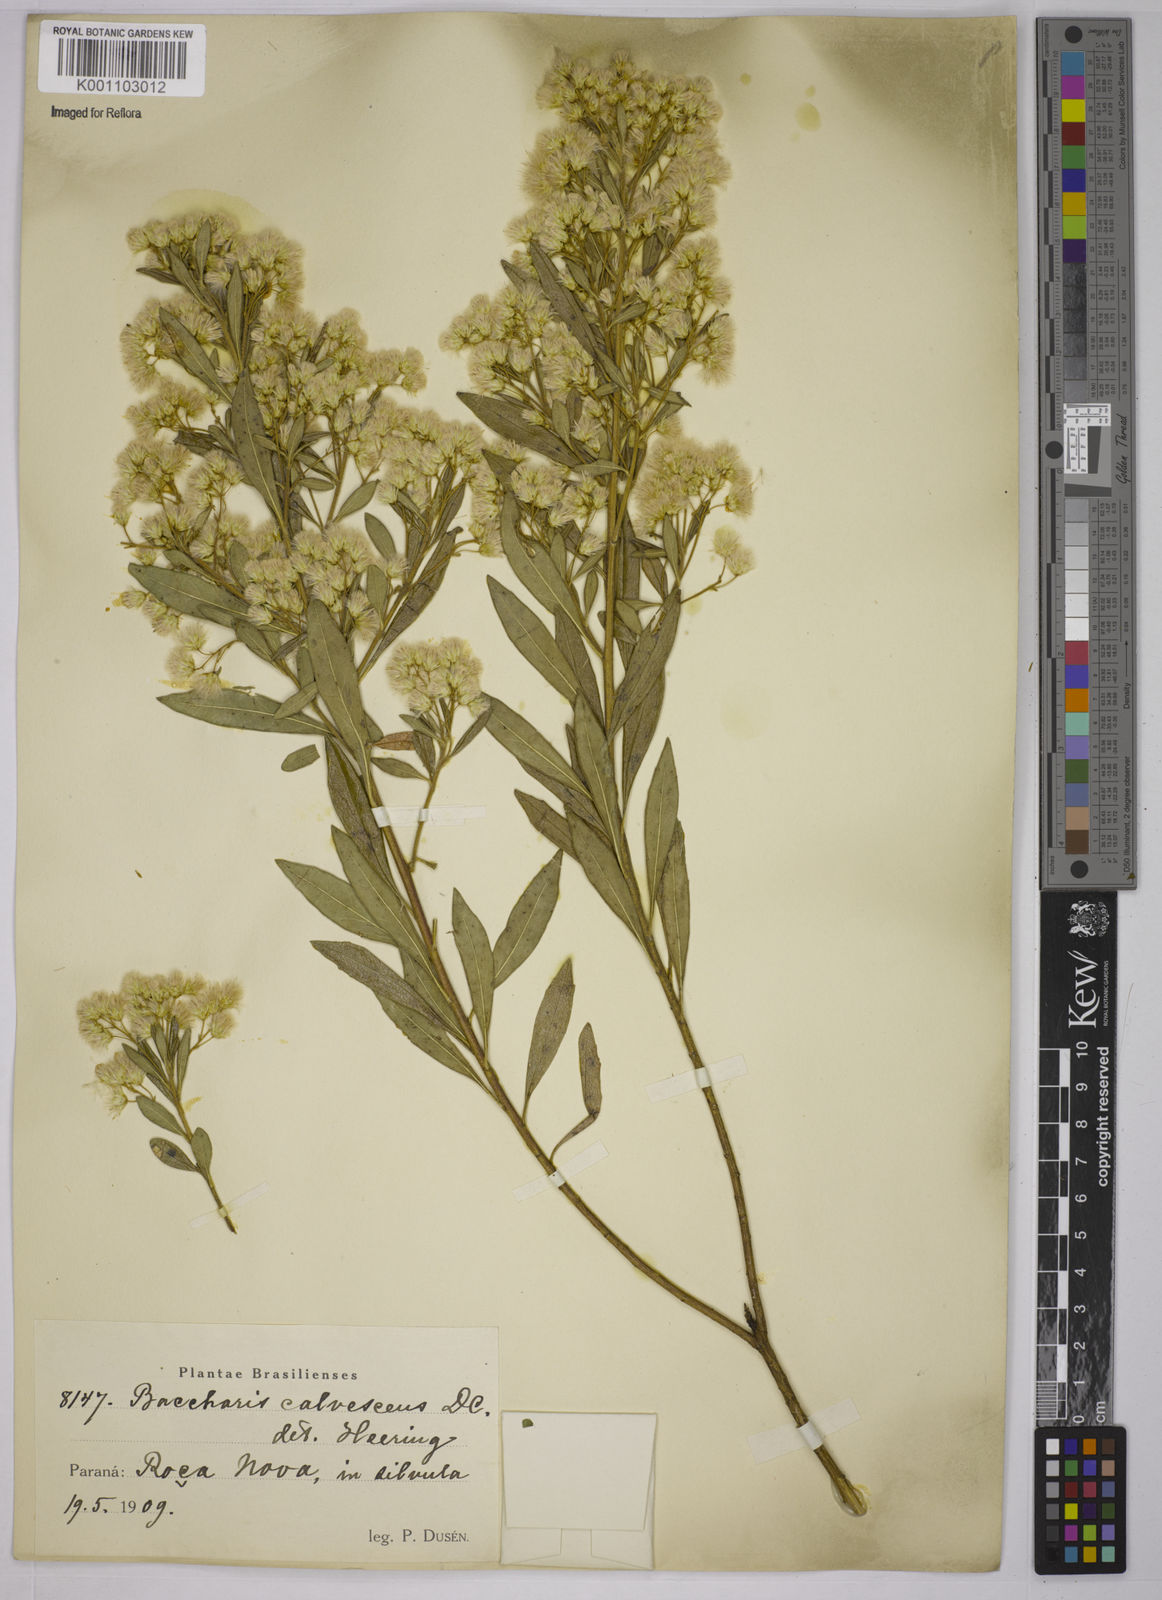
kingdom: Plantae
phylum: Tracheophyta
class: Magnoliopsida
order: Asterales
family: Asteraceae
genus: Baccharis
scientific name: Baccharis calvescens
